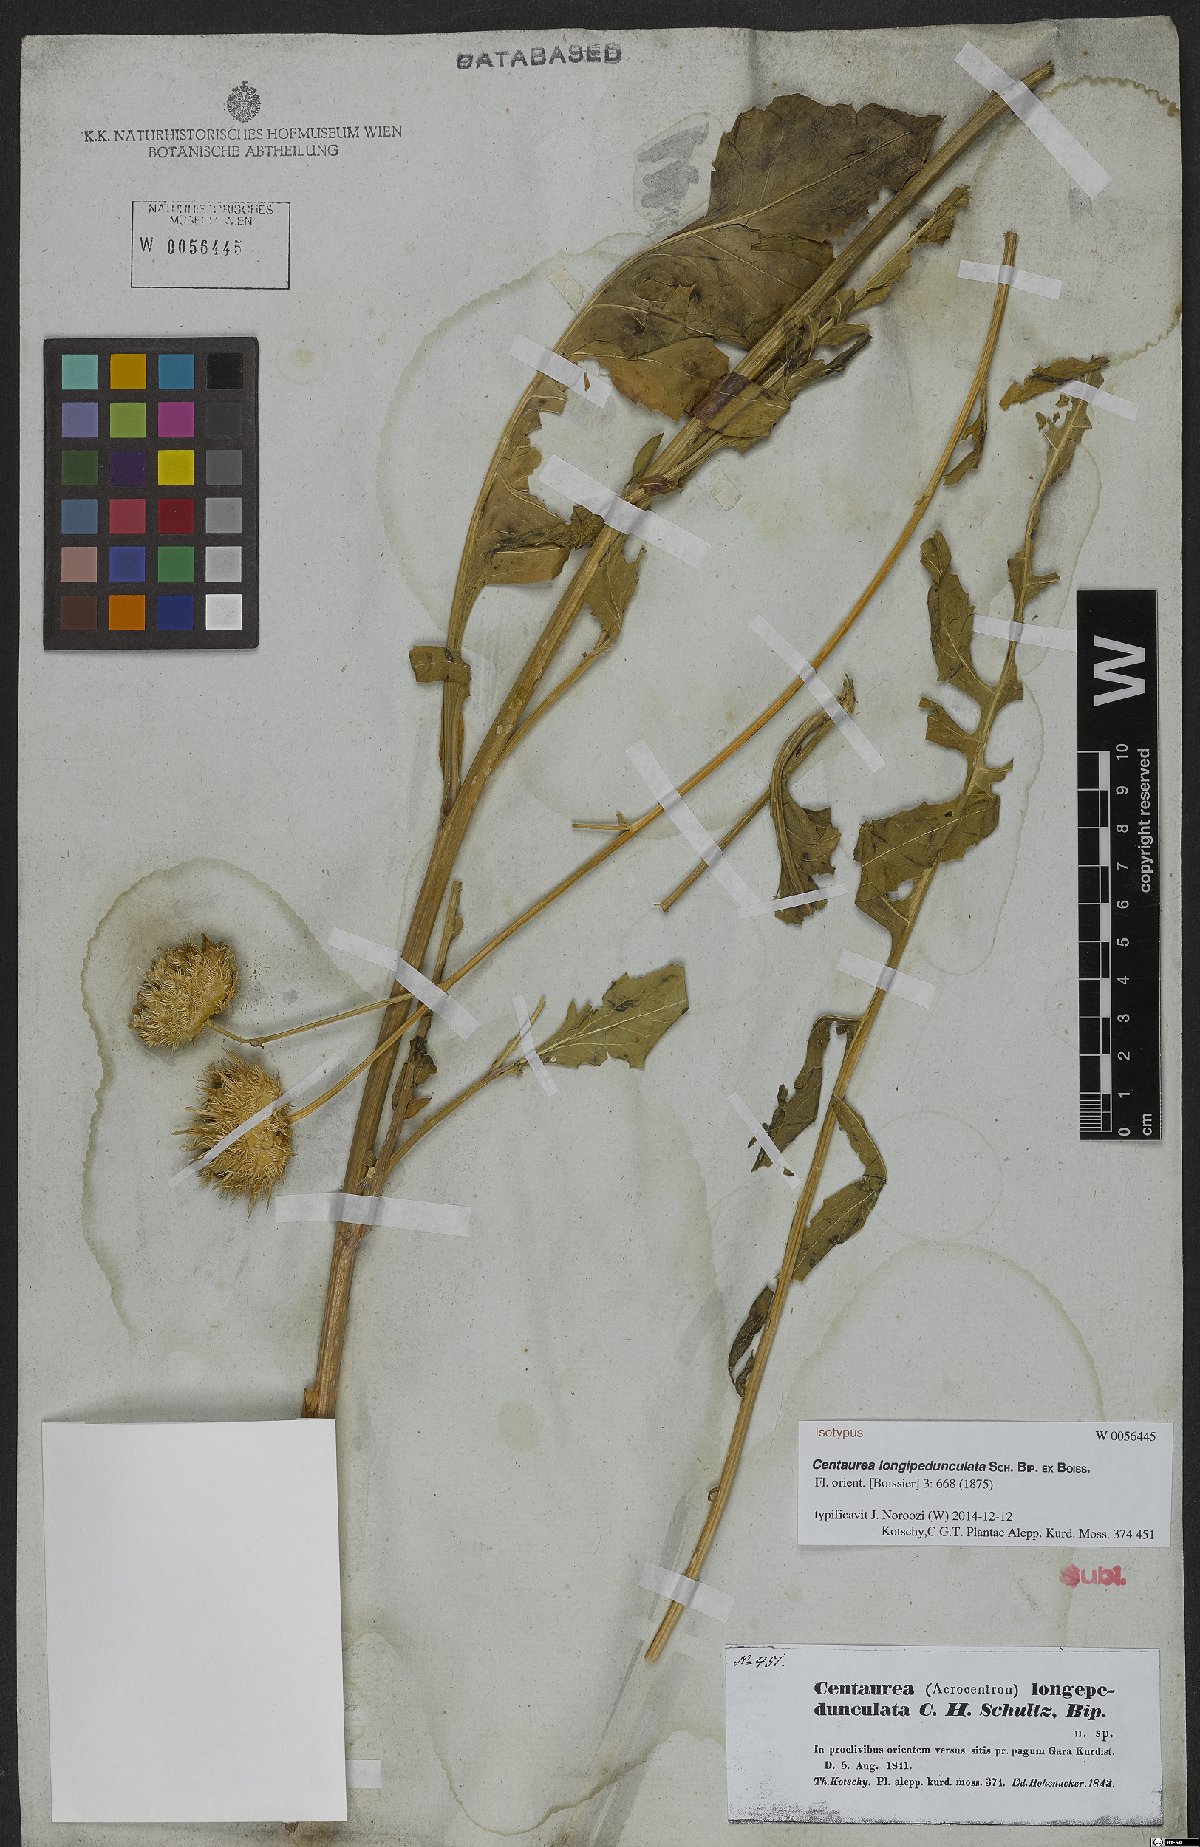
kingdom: Plantae
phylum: Tracheophyta
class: Magnoliopsida
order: Asterales
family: Asteraceae
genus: Centaurea
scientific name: Centaurea longepedunculata
